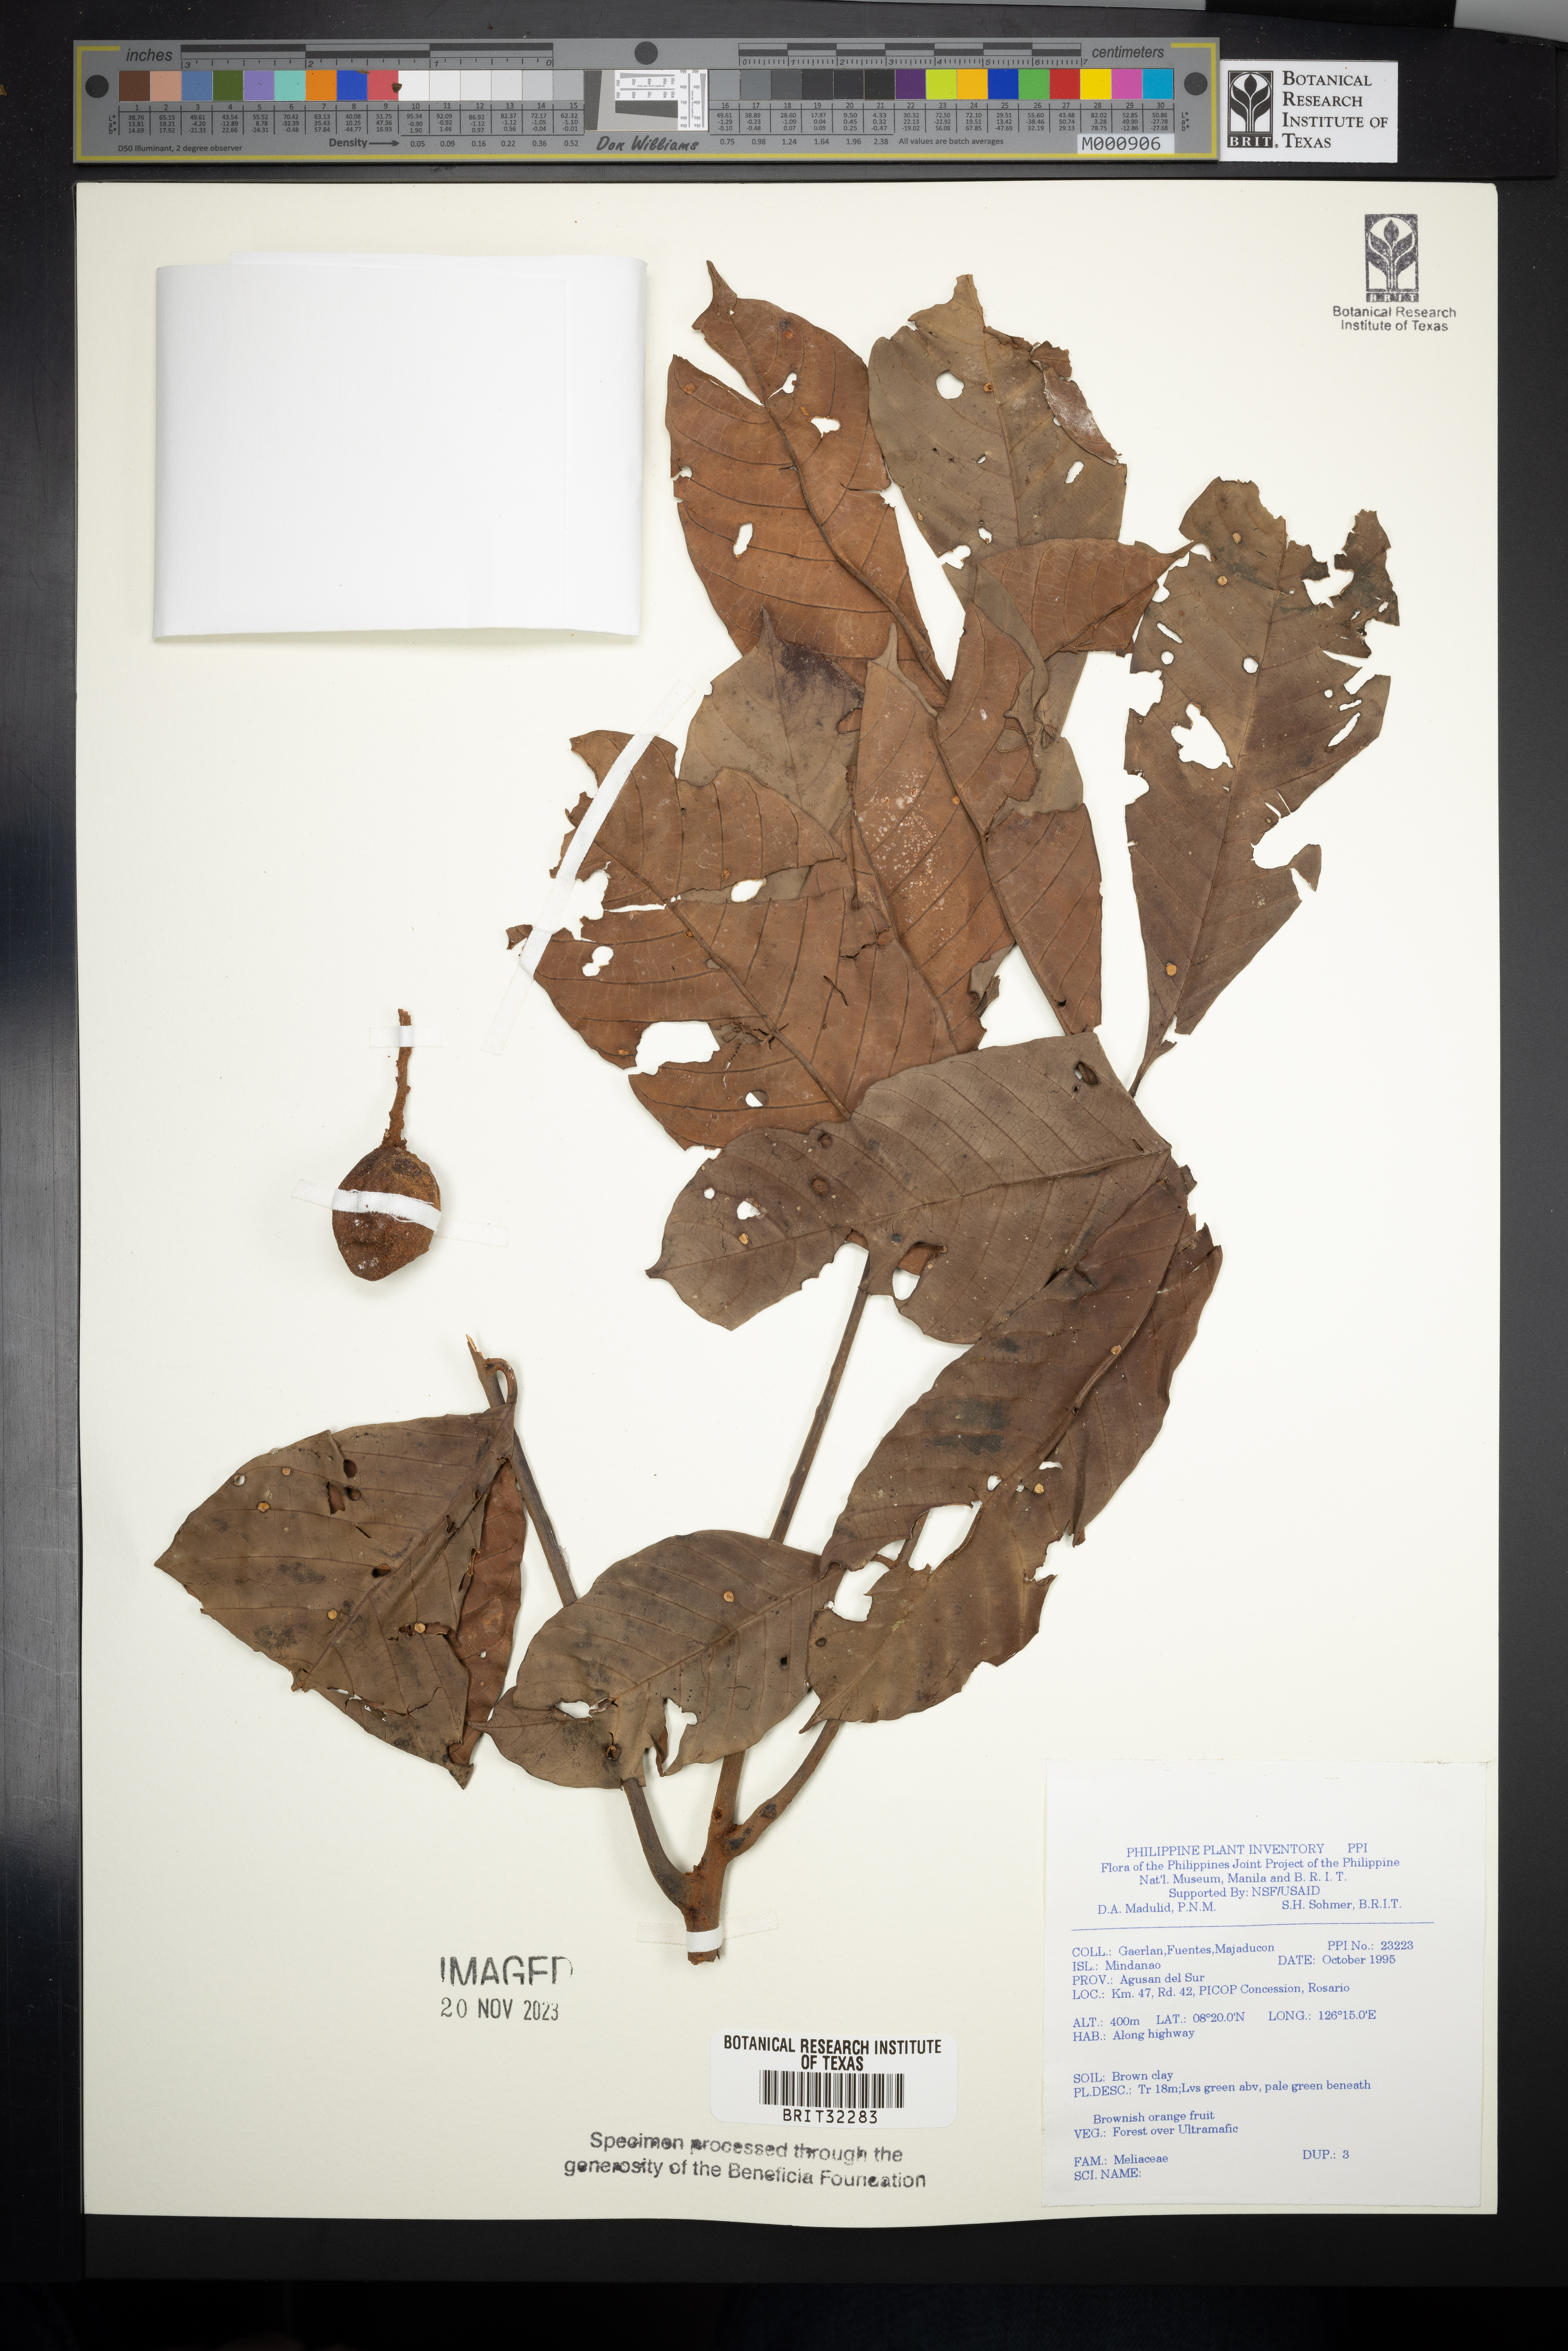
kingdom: Plantae
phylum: Tracheophyta
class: Magnoliopsida
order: Sapindales
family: Meliaceae
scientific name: Meliaceae
